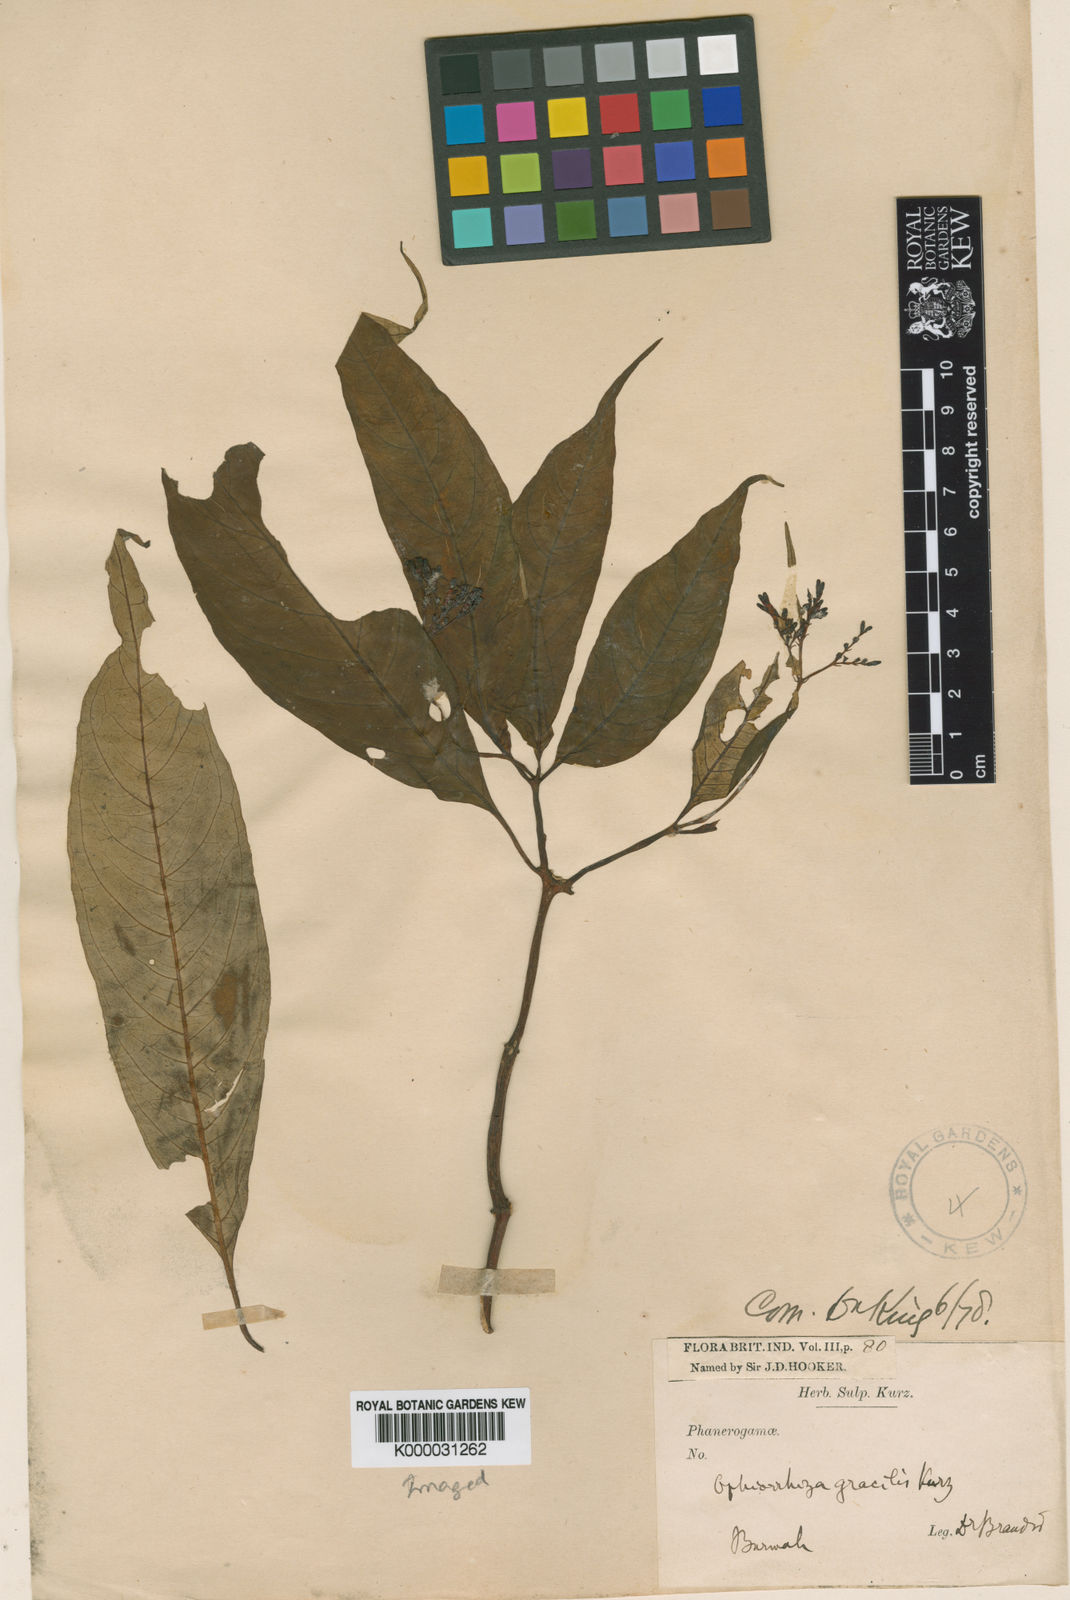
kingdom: Plantae
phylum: Tracheophyta
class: Magnoliopsida
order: Gentianales
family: Rubiaceae
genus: Ophiorrhiza
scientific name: Ophiorrhiza gracilis
